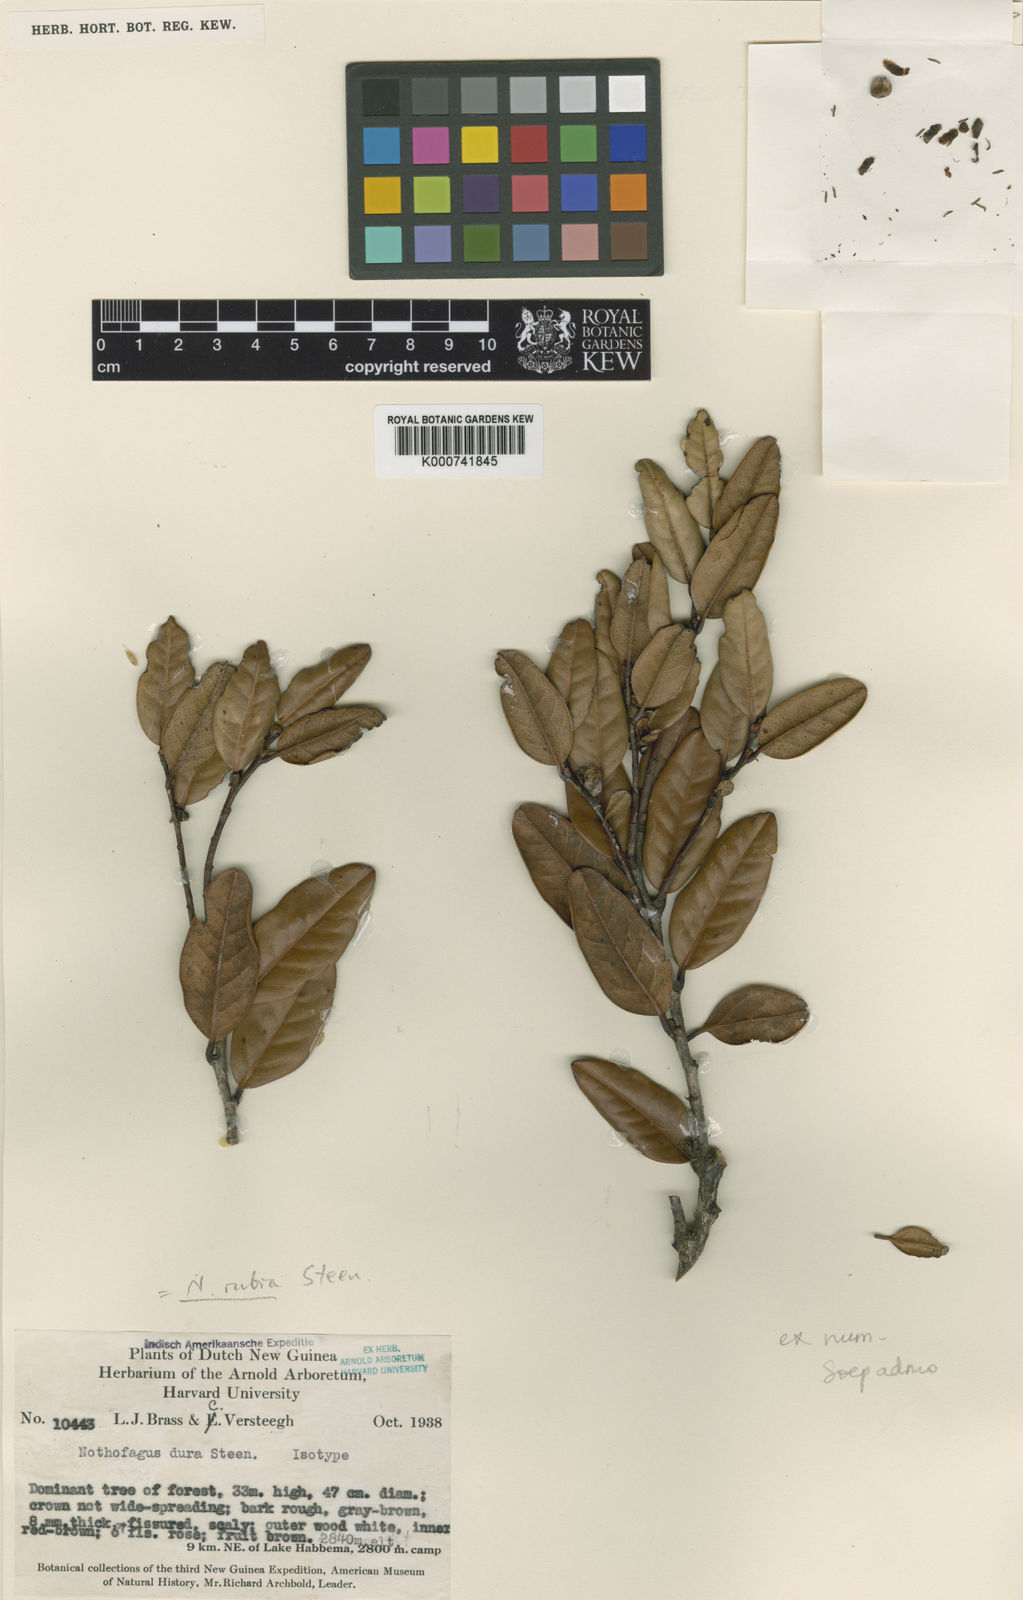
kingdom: Plantae
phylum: Tracheophyta
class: Magnoliopsida
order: Fagales
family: Nothofagaceae
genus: Nothofagus
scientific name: Nothofagus rubra
